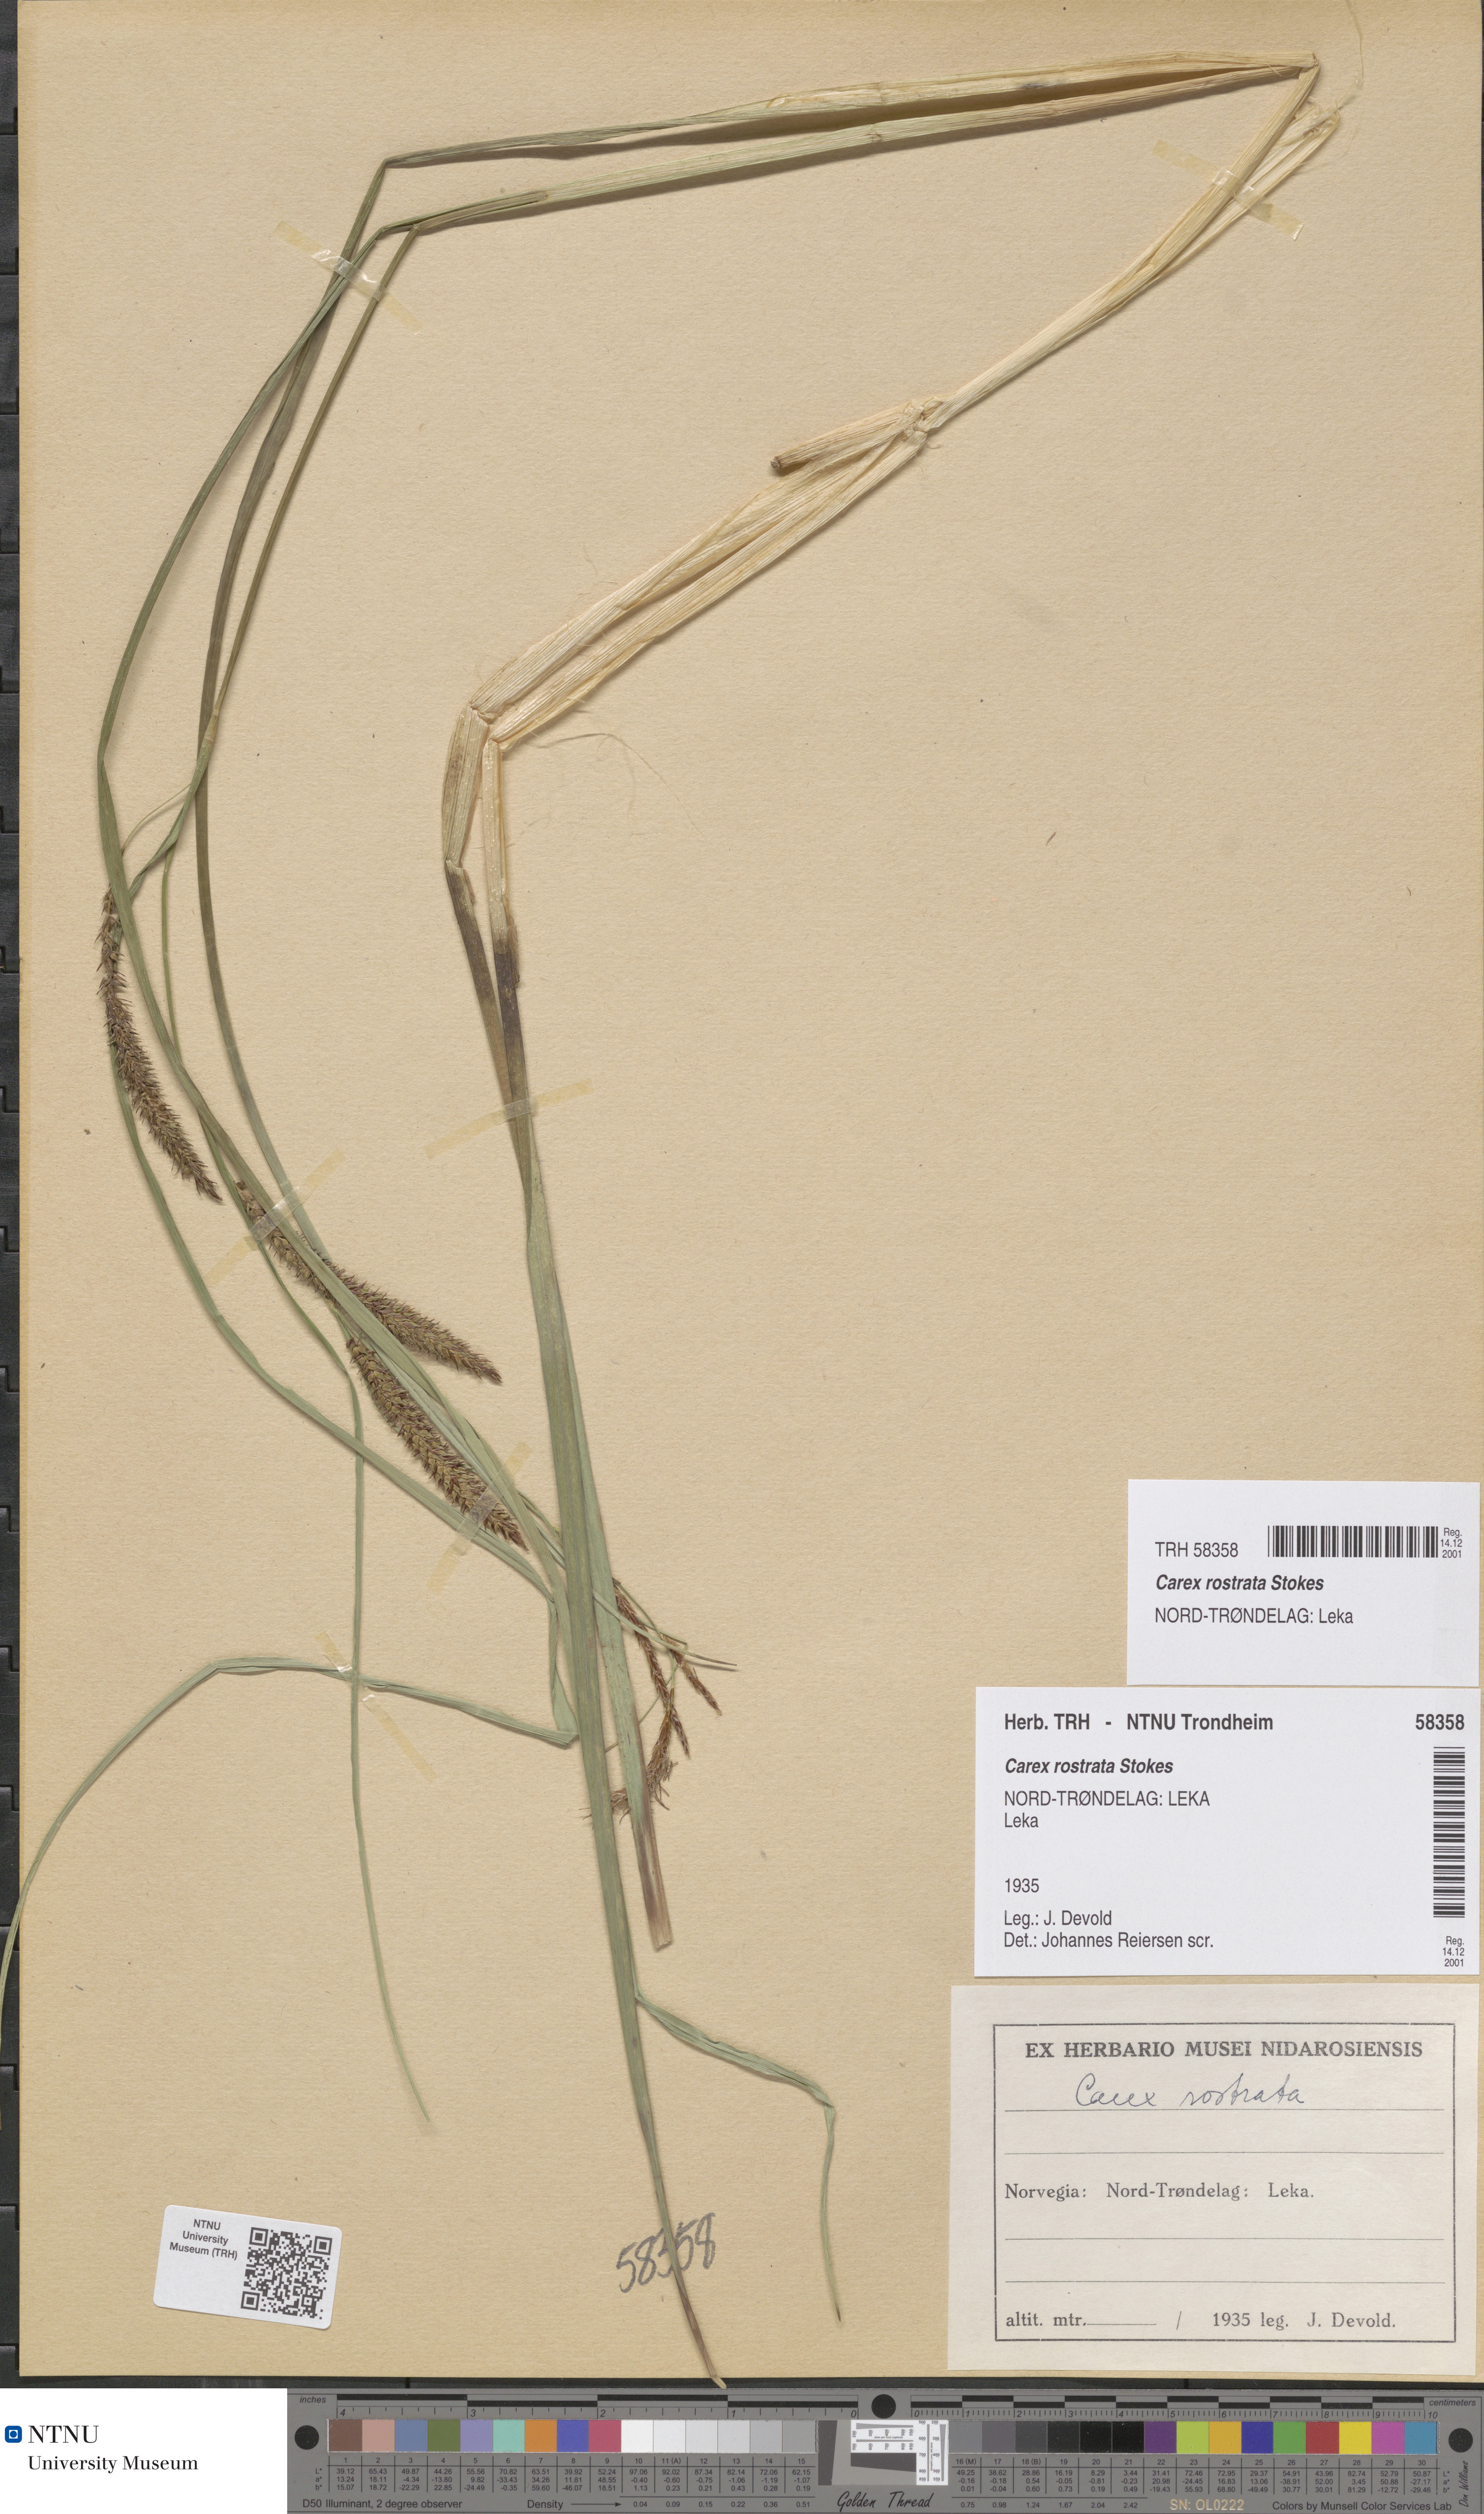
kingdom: Plantae
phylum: Tracheophyta
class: Liliopsida
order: Poales
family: Cyperaceae
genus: Carex
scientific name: Carex rostrata
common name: Bottle sedge
